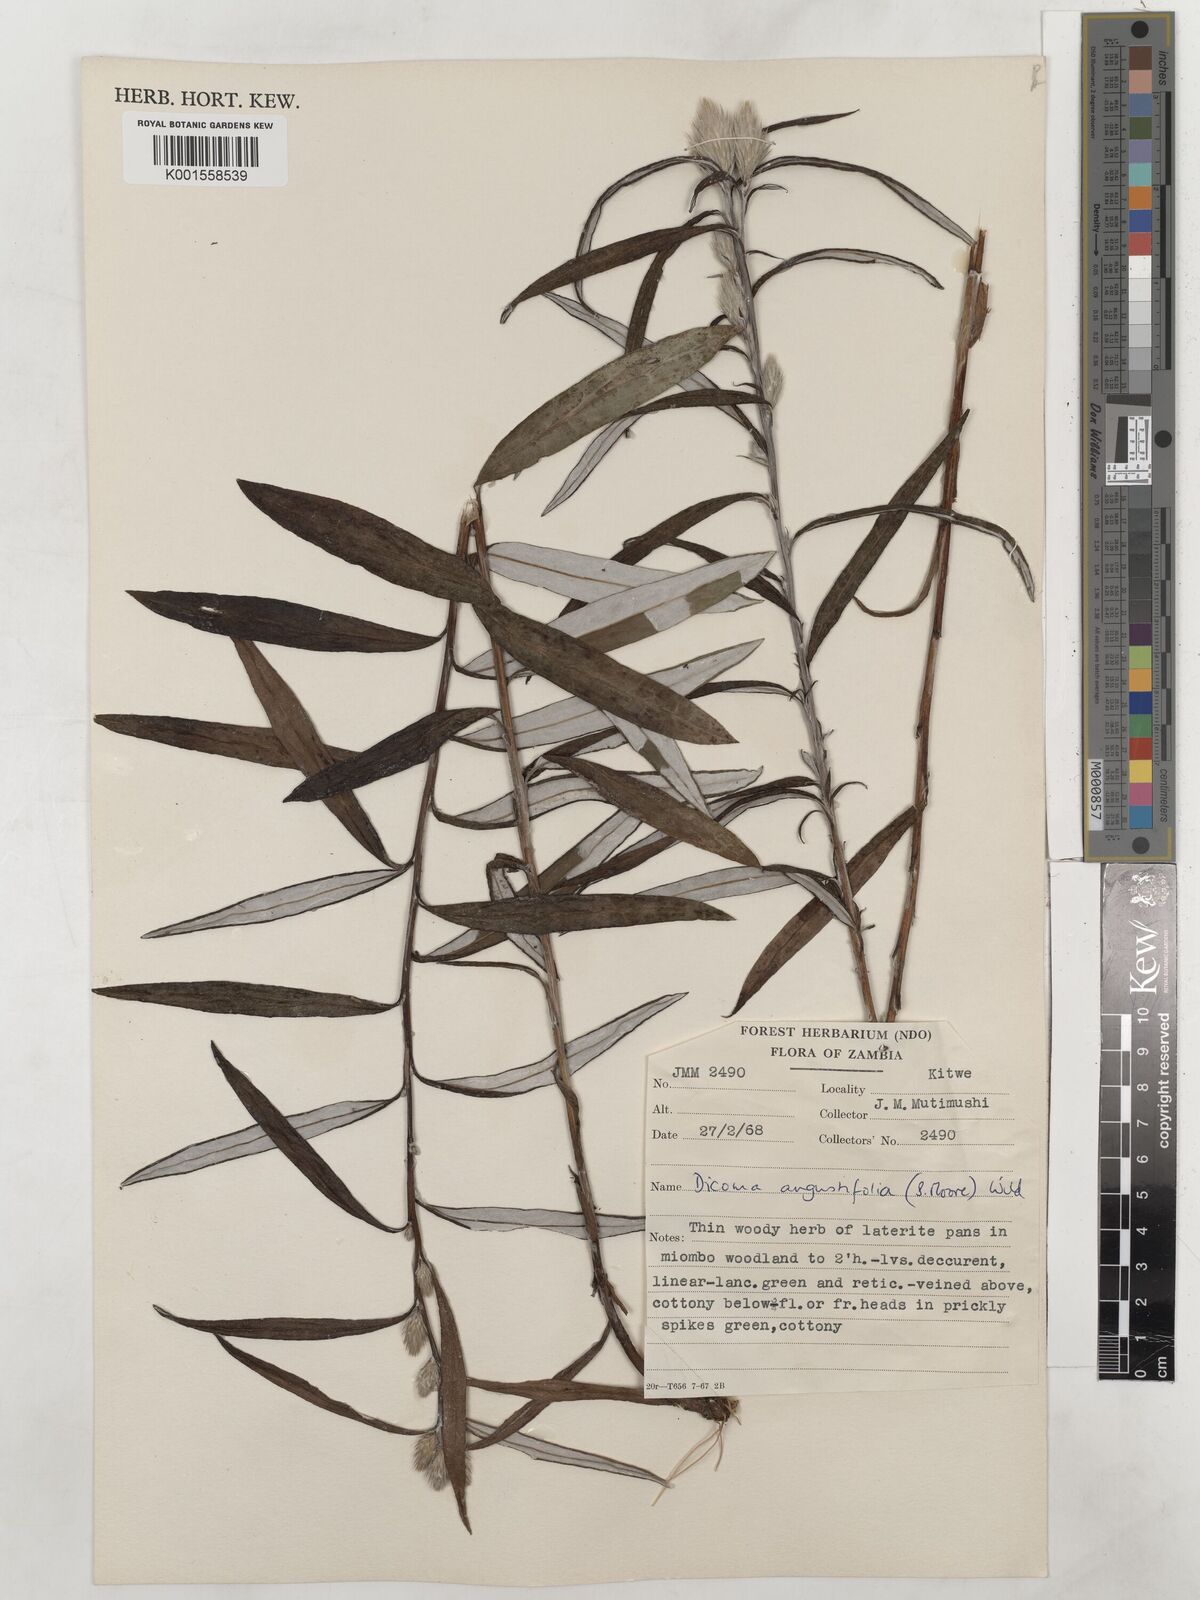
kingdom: Plantae
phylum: Tracheophyta
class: Magnoliopsida
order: Asterales
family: Asteraceae
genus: Macledium
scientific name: Macledium poggei
